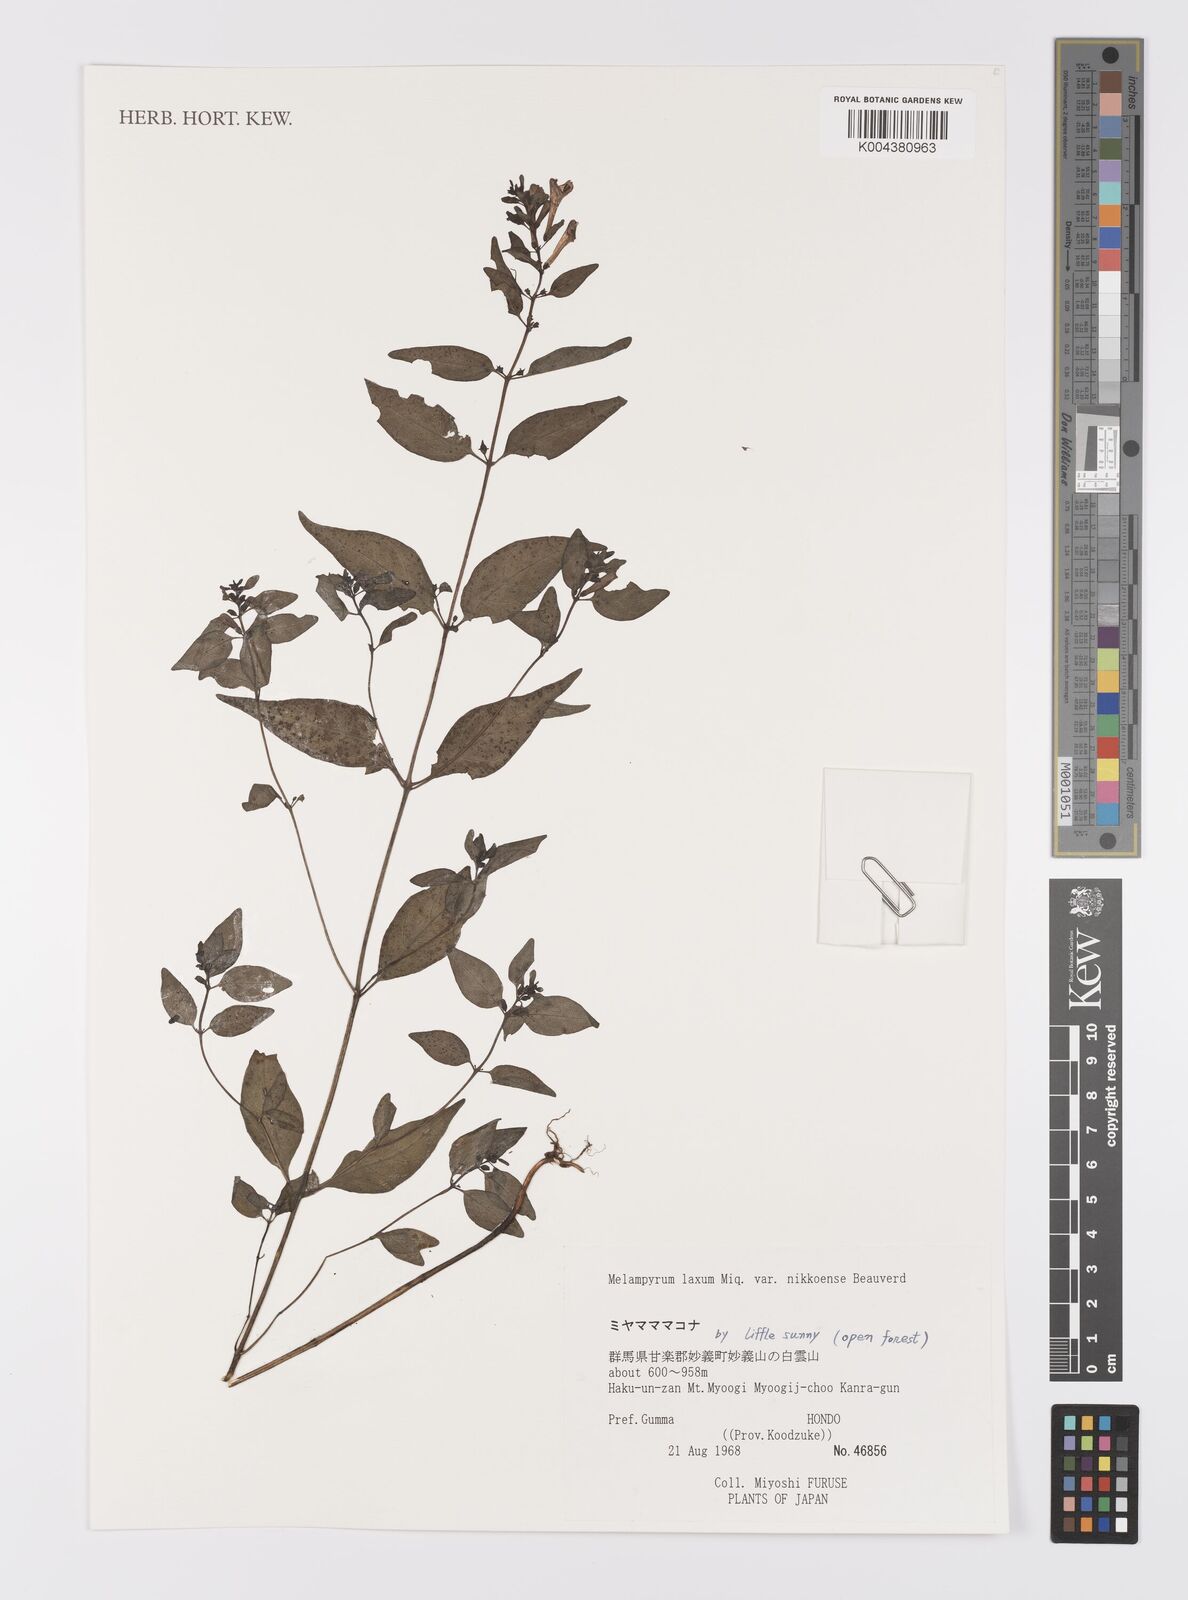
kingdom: Plantae
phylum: Tracheophyta
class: Magnoliopsida
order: Lamiales
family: Orobanchaceae
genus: Melampyrum
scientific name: Melampyrum laxum
